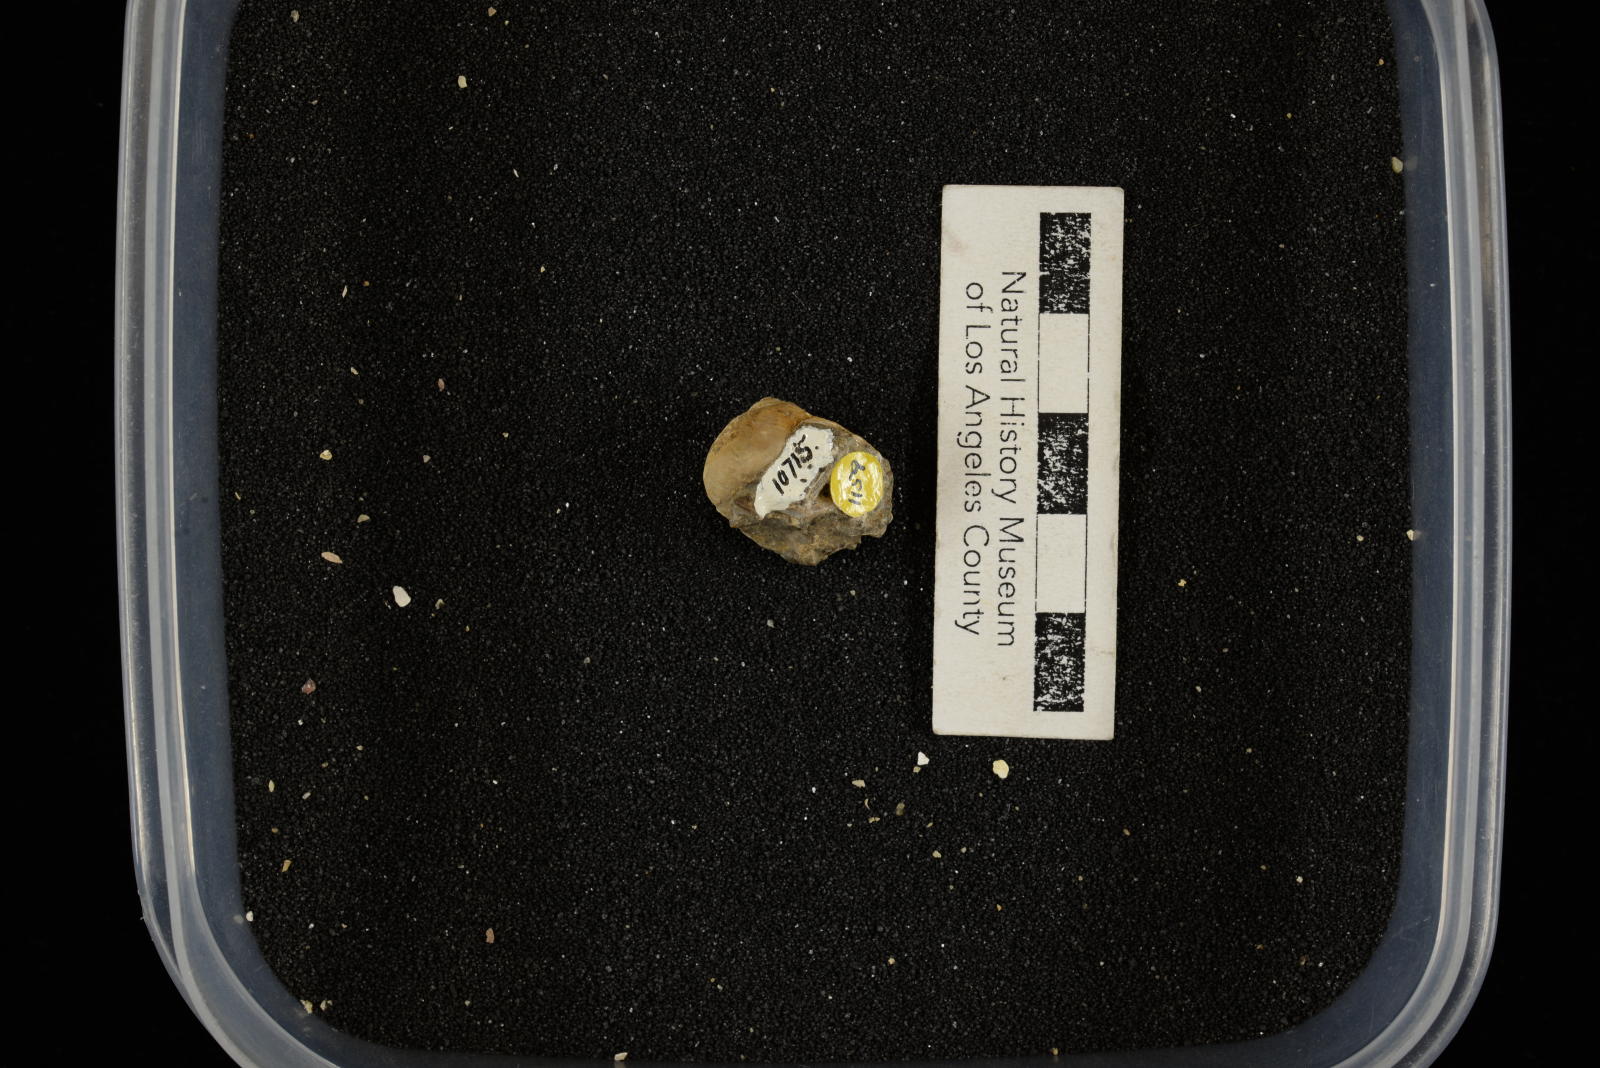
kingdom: Animalia
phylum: Mollusca
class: Gastropoda
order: Littorinimorpha
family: Naticidae
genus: Euspira
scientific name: Euspira Gyrodes compressus
